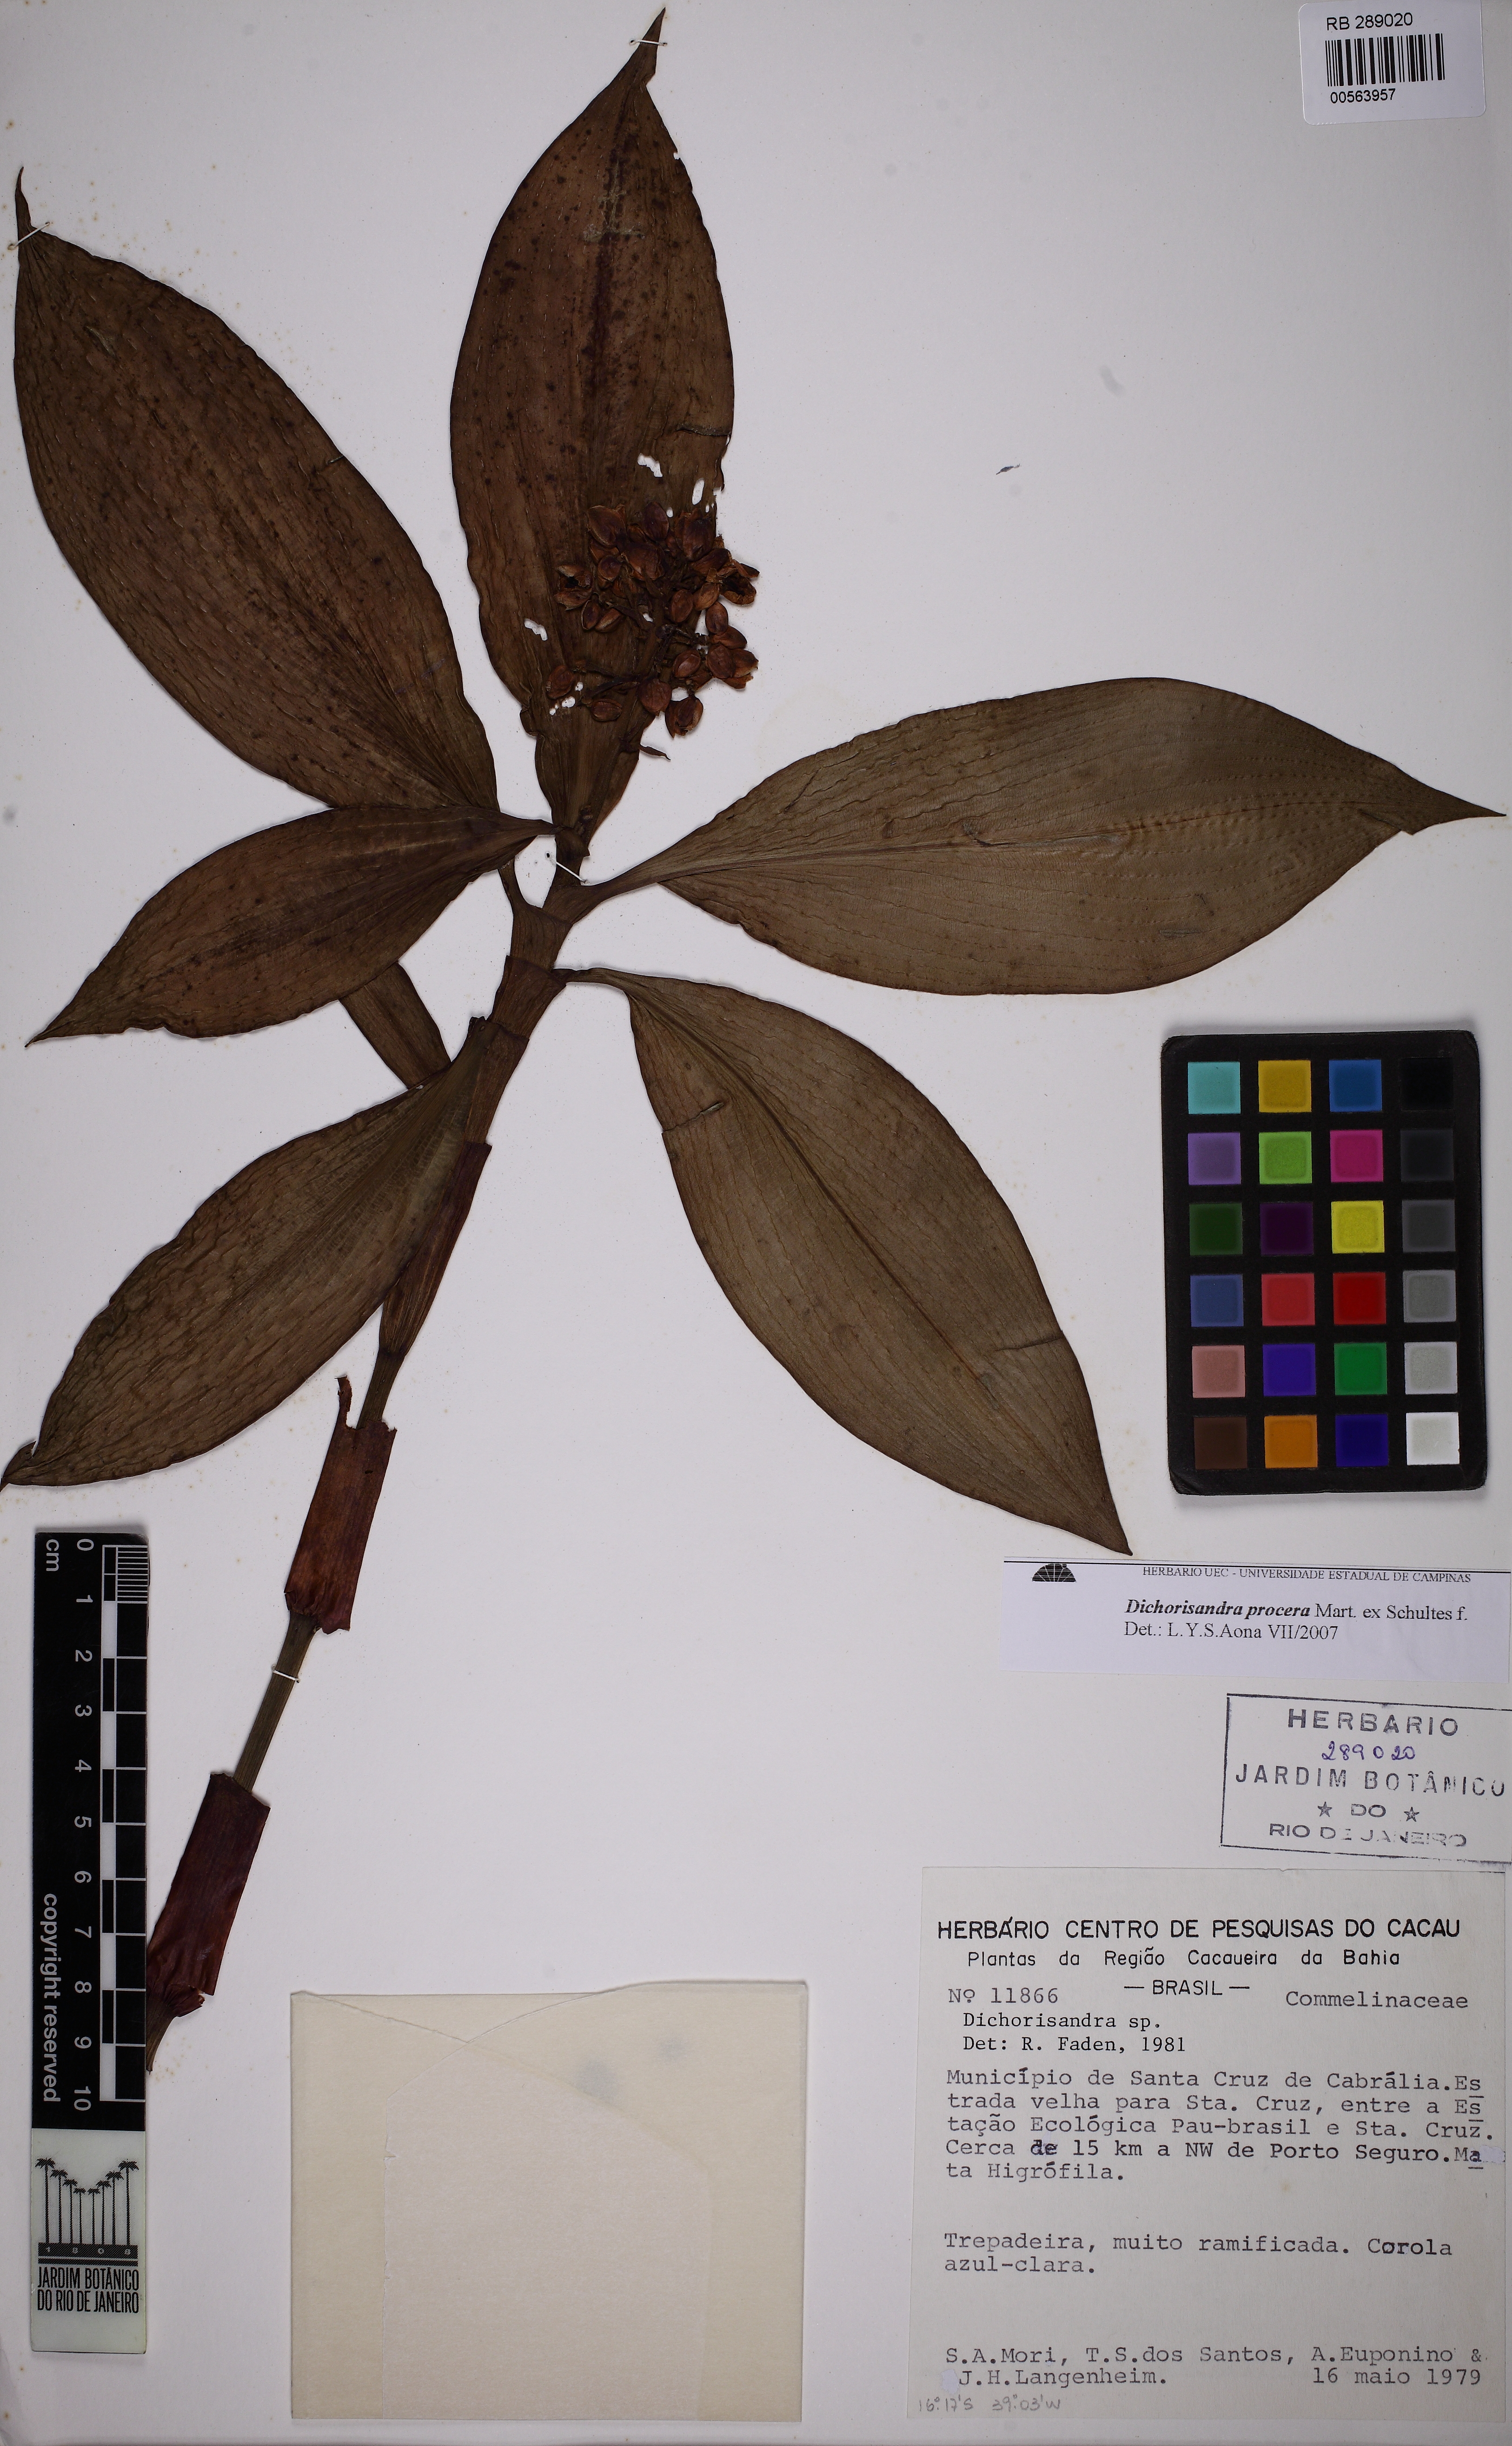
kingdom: Plantae
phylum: Tracheophyta
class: Liliopsida
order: Commelinales
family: Commelinaceae
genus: Dichorisandra
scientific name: Dichorisandra procera
